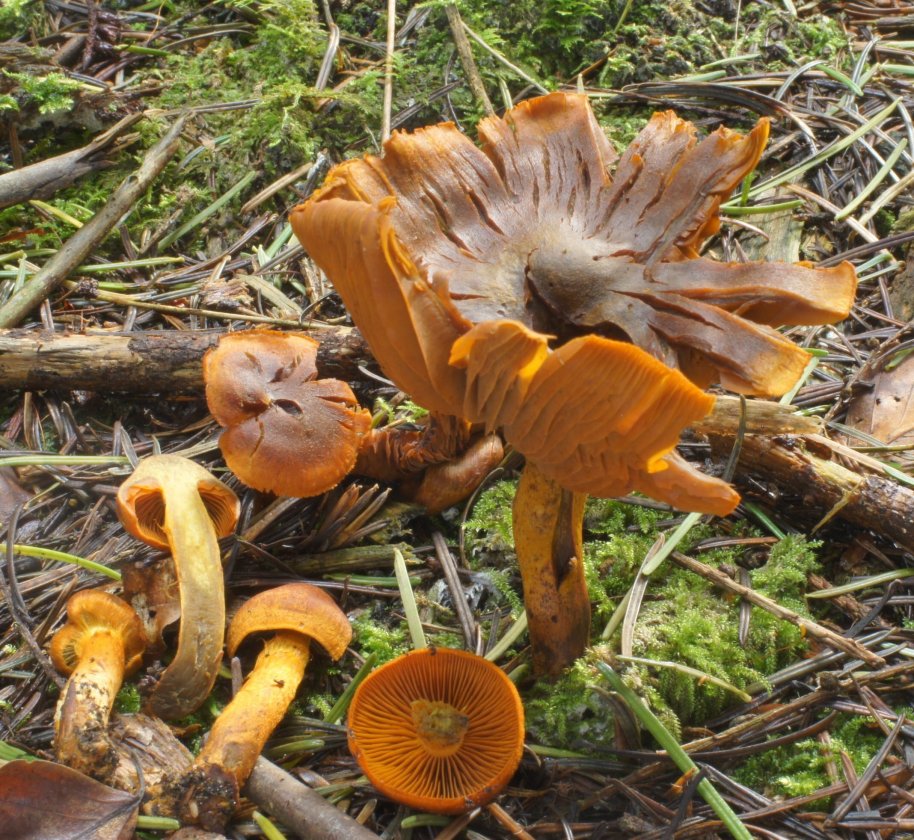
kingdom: Fungi
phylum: Basidiomycota
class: Agaricomycetes
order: Agaricales
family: Cortinariaceae
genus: Cortinarius
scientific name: Cortinarius malicorius
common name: grønkødet slørhat
